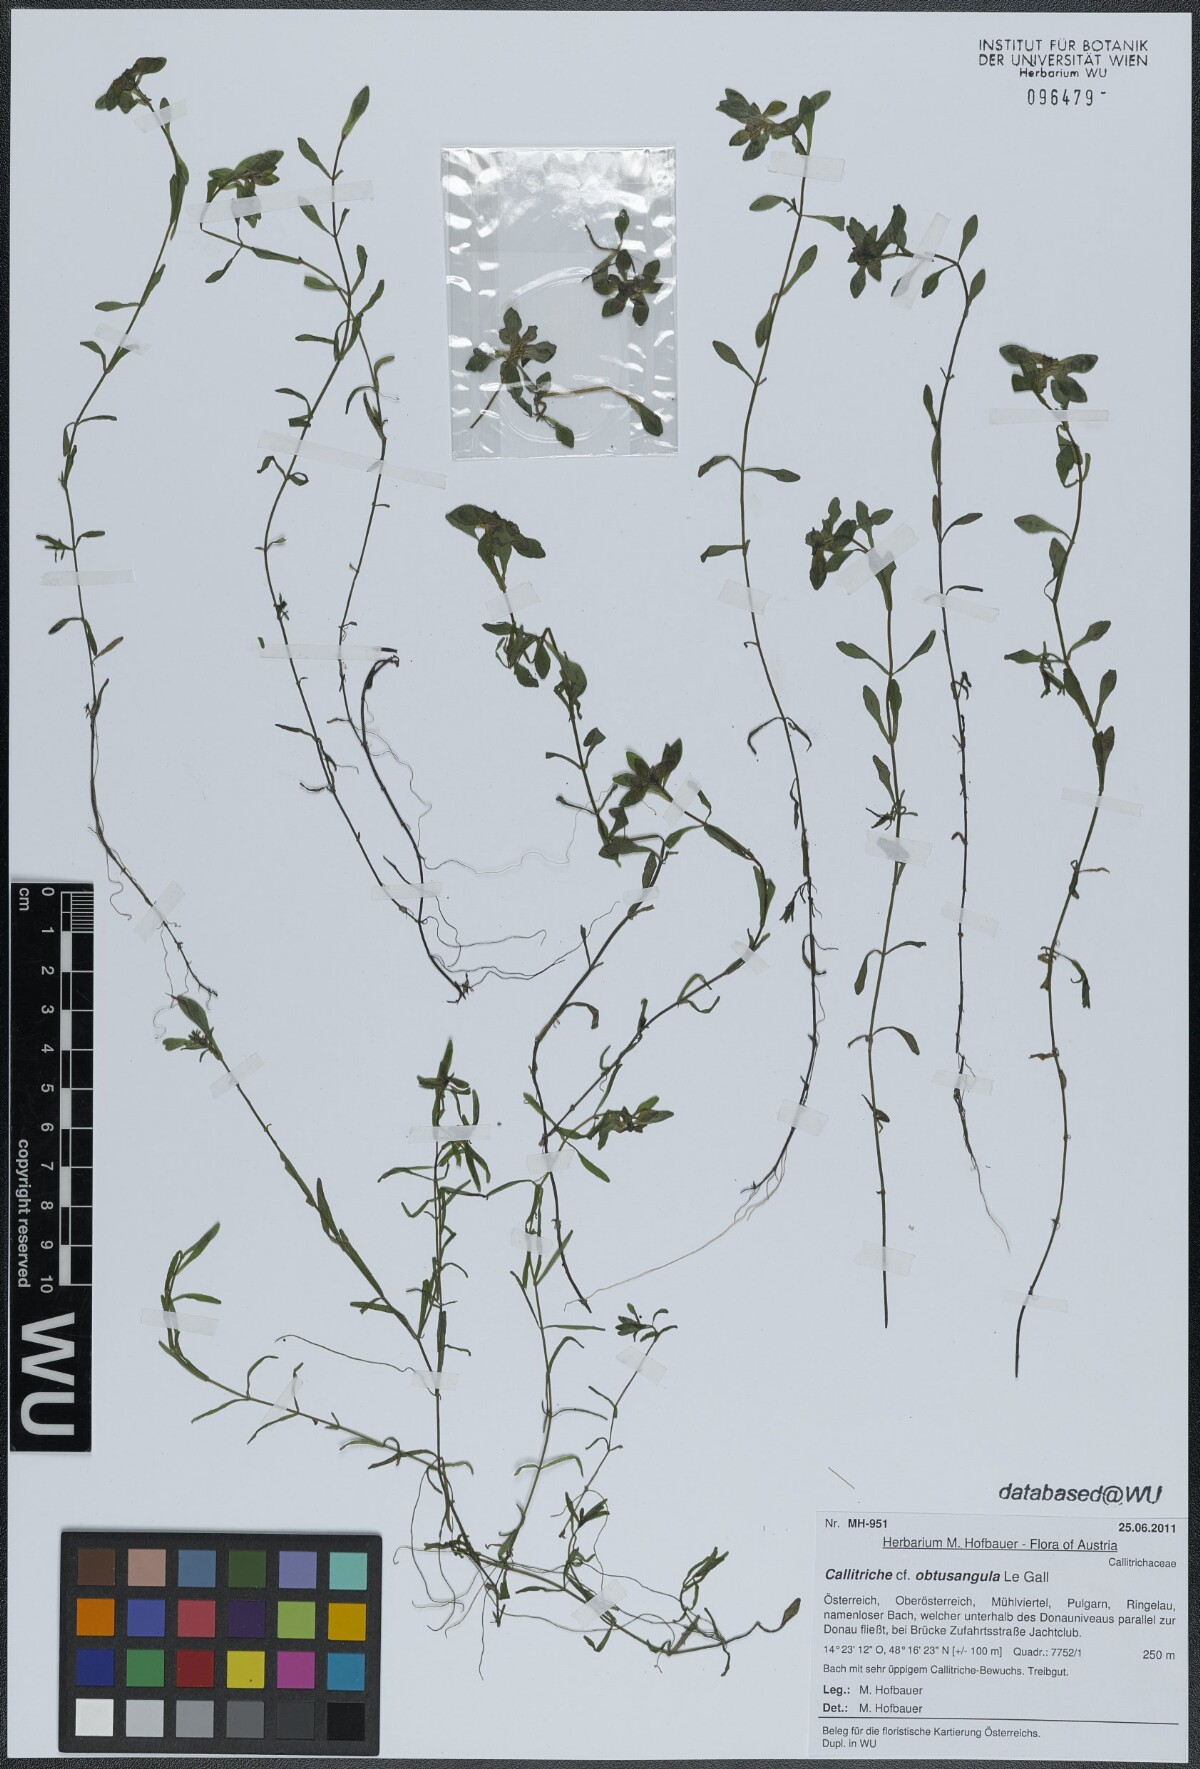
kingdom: Plantae
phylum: Tracheophyta
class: Magnoliopsida
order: Lamiales
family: Plantaginaceae
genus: Callitriche
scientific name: Callitriche obtusangula
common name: Blunt-fruited water-starwort
